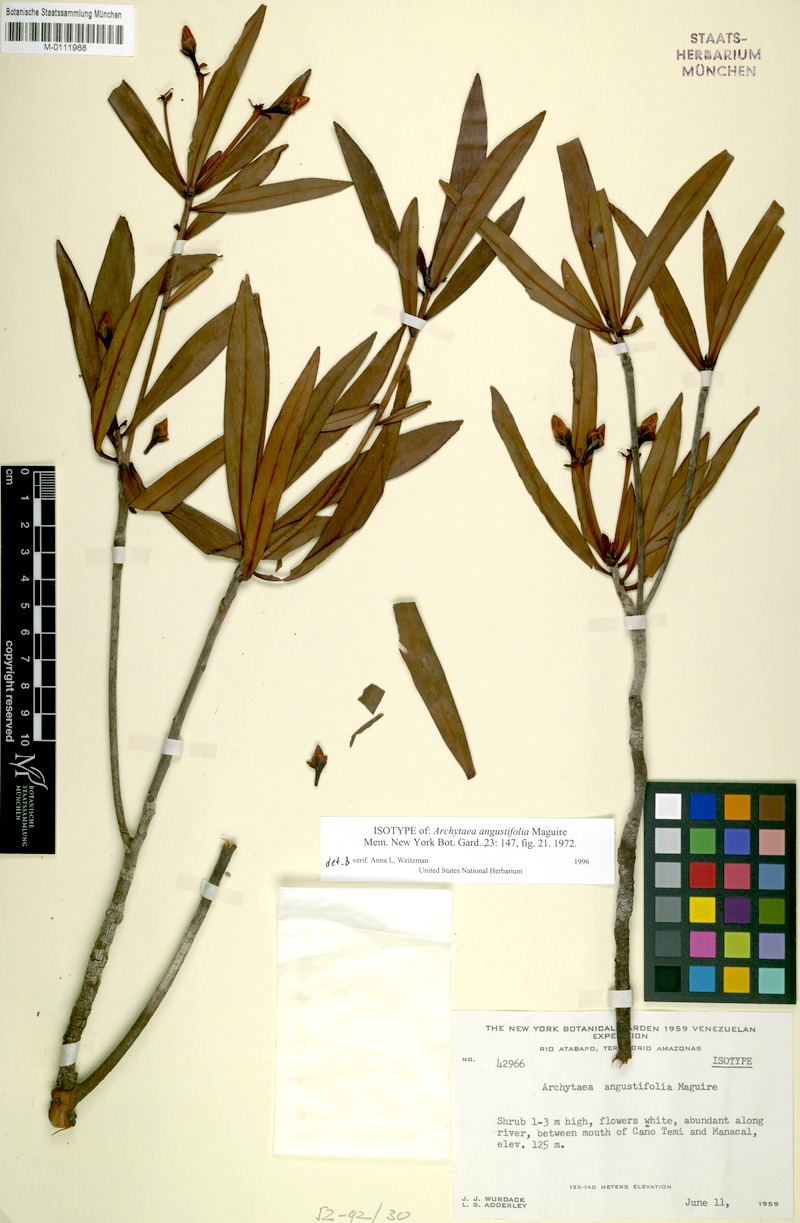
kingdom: Plantae
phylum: Tracheophyta
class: Magnoliopsida
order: Malpighiales
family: Bonnetiaceae
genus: Archytaea
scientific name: Archytaea angustifolia
